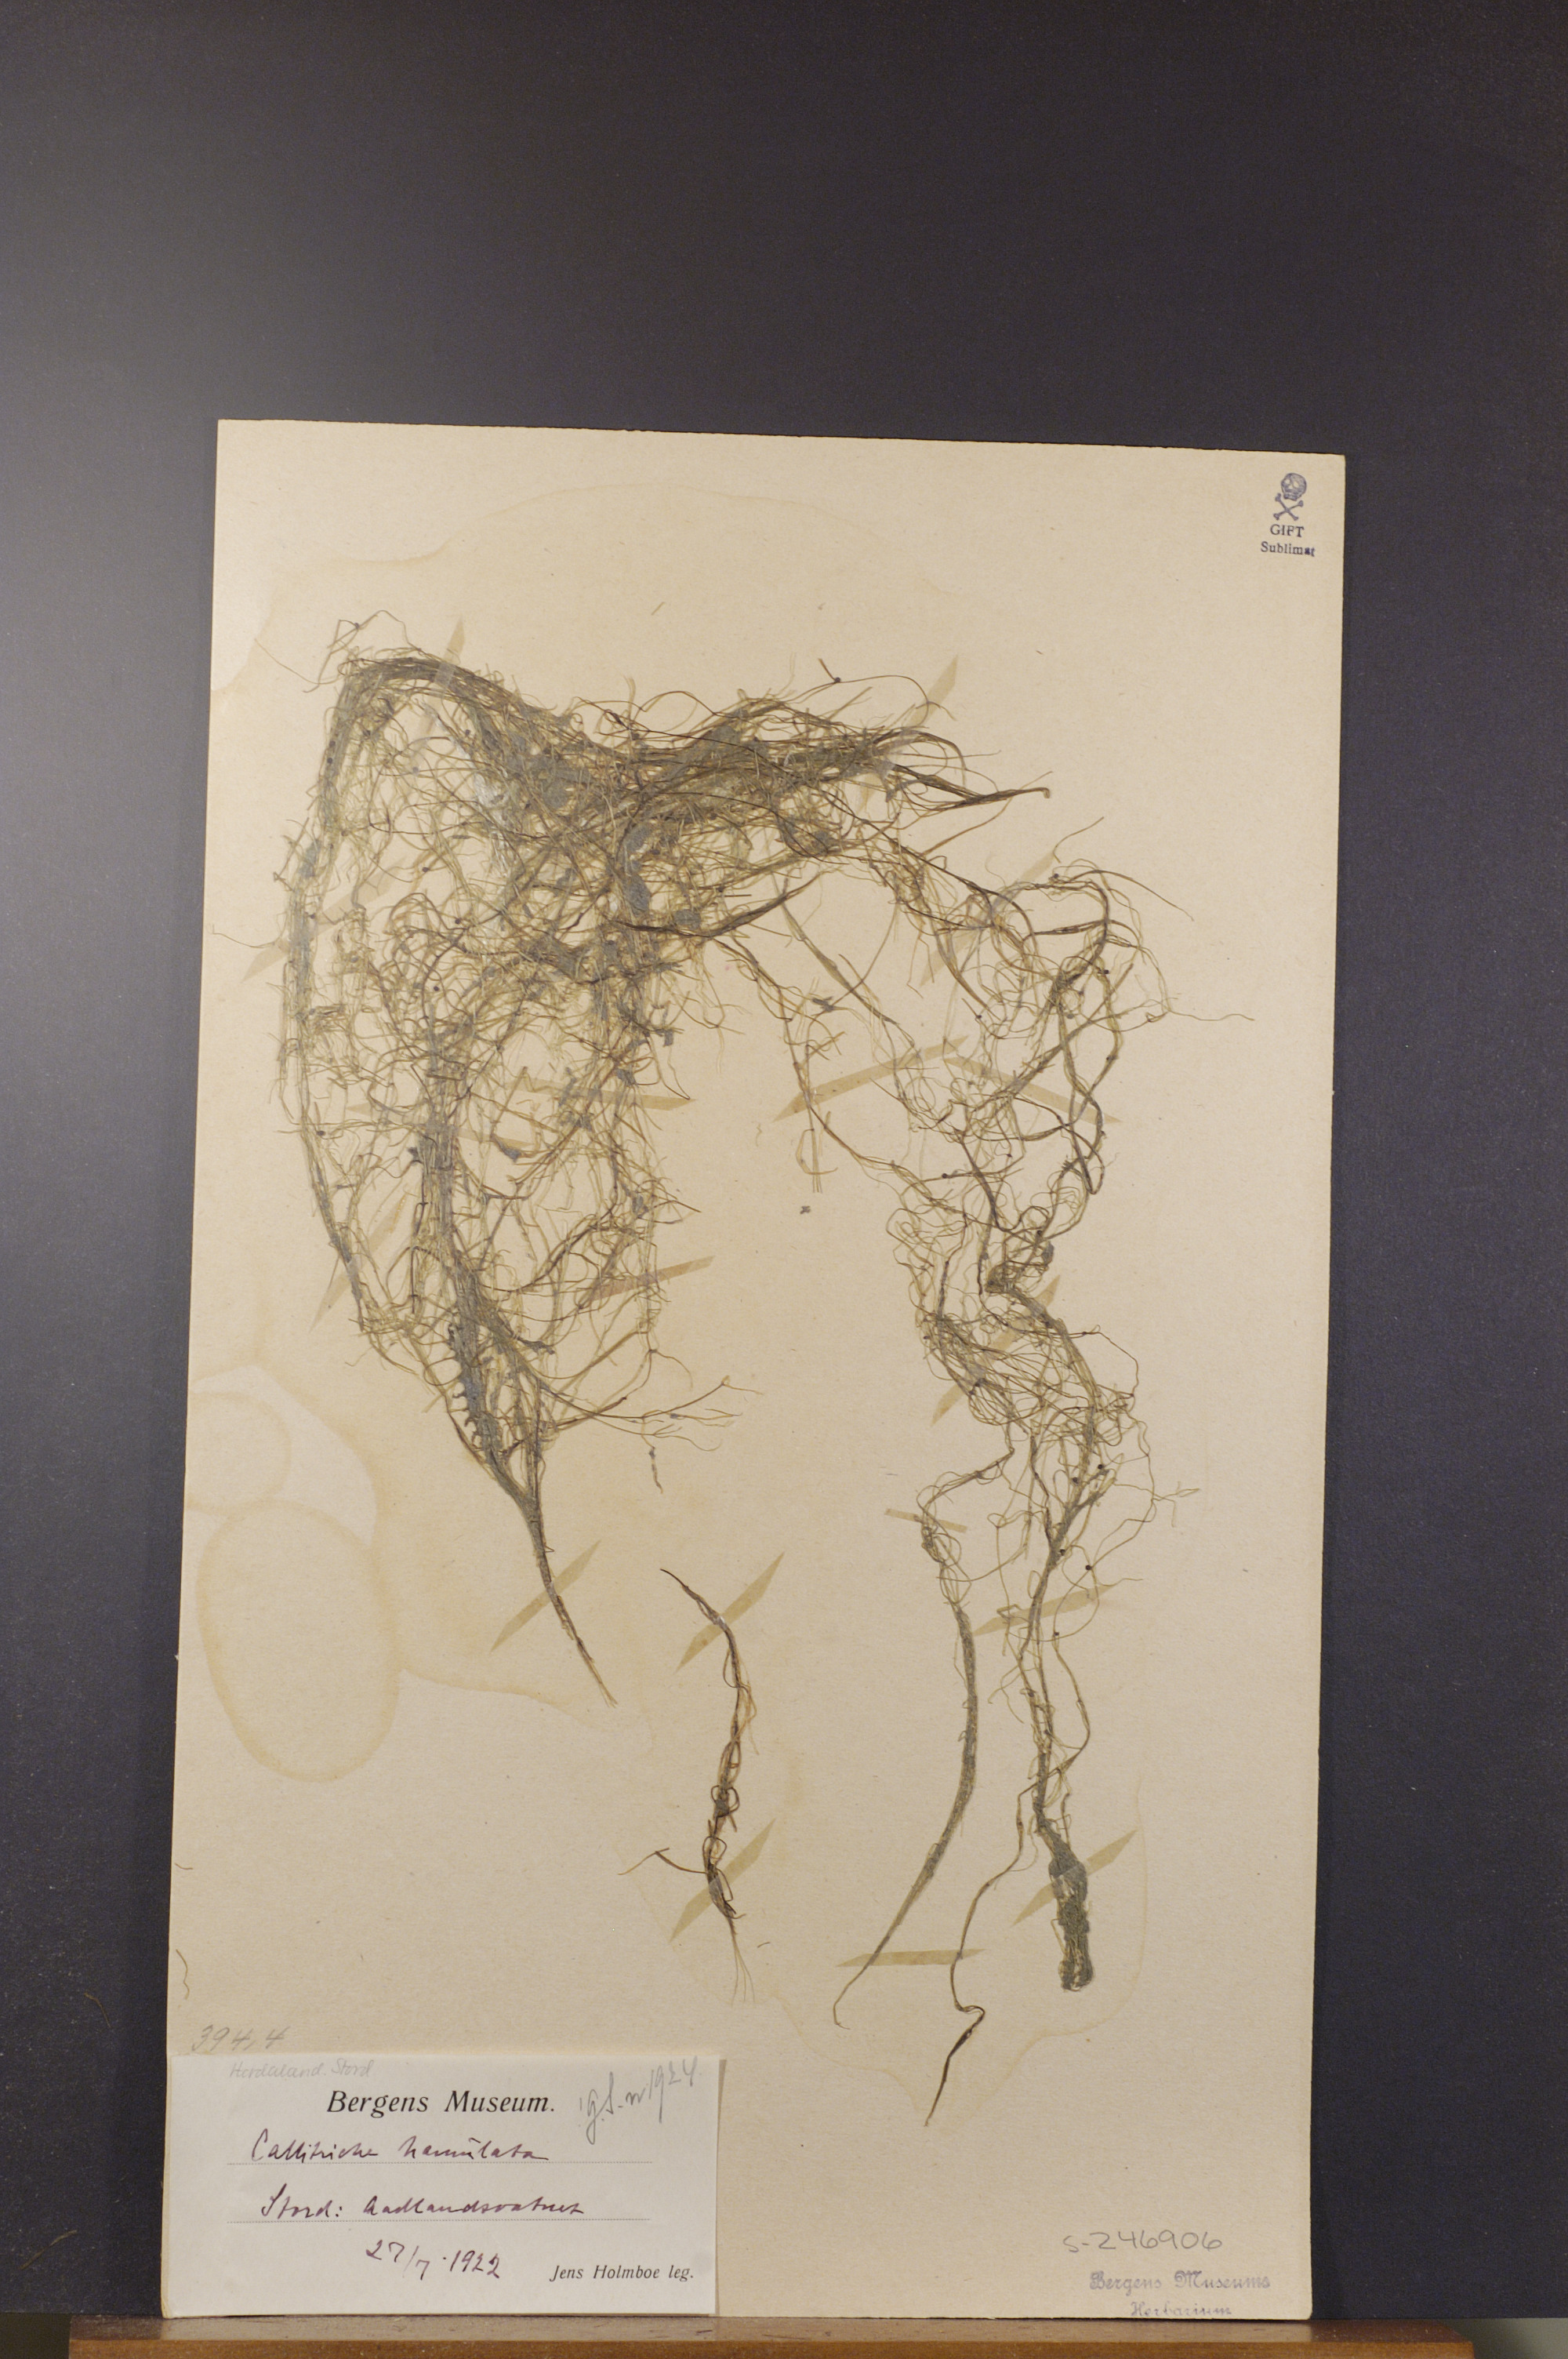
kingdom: Plantae
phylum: Tracheophyta
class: Magnoliopsida
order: Lamiales
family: Plantaginaceae
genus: Callitriche
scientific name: Callitriche hamulata
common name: Intermediate water-starwort
